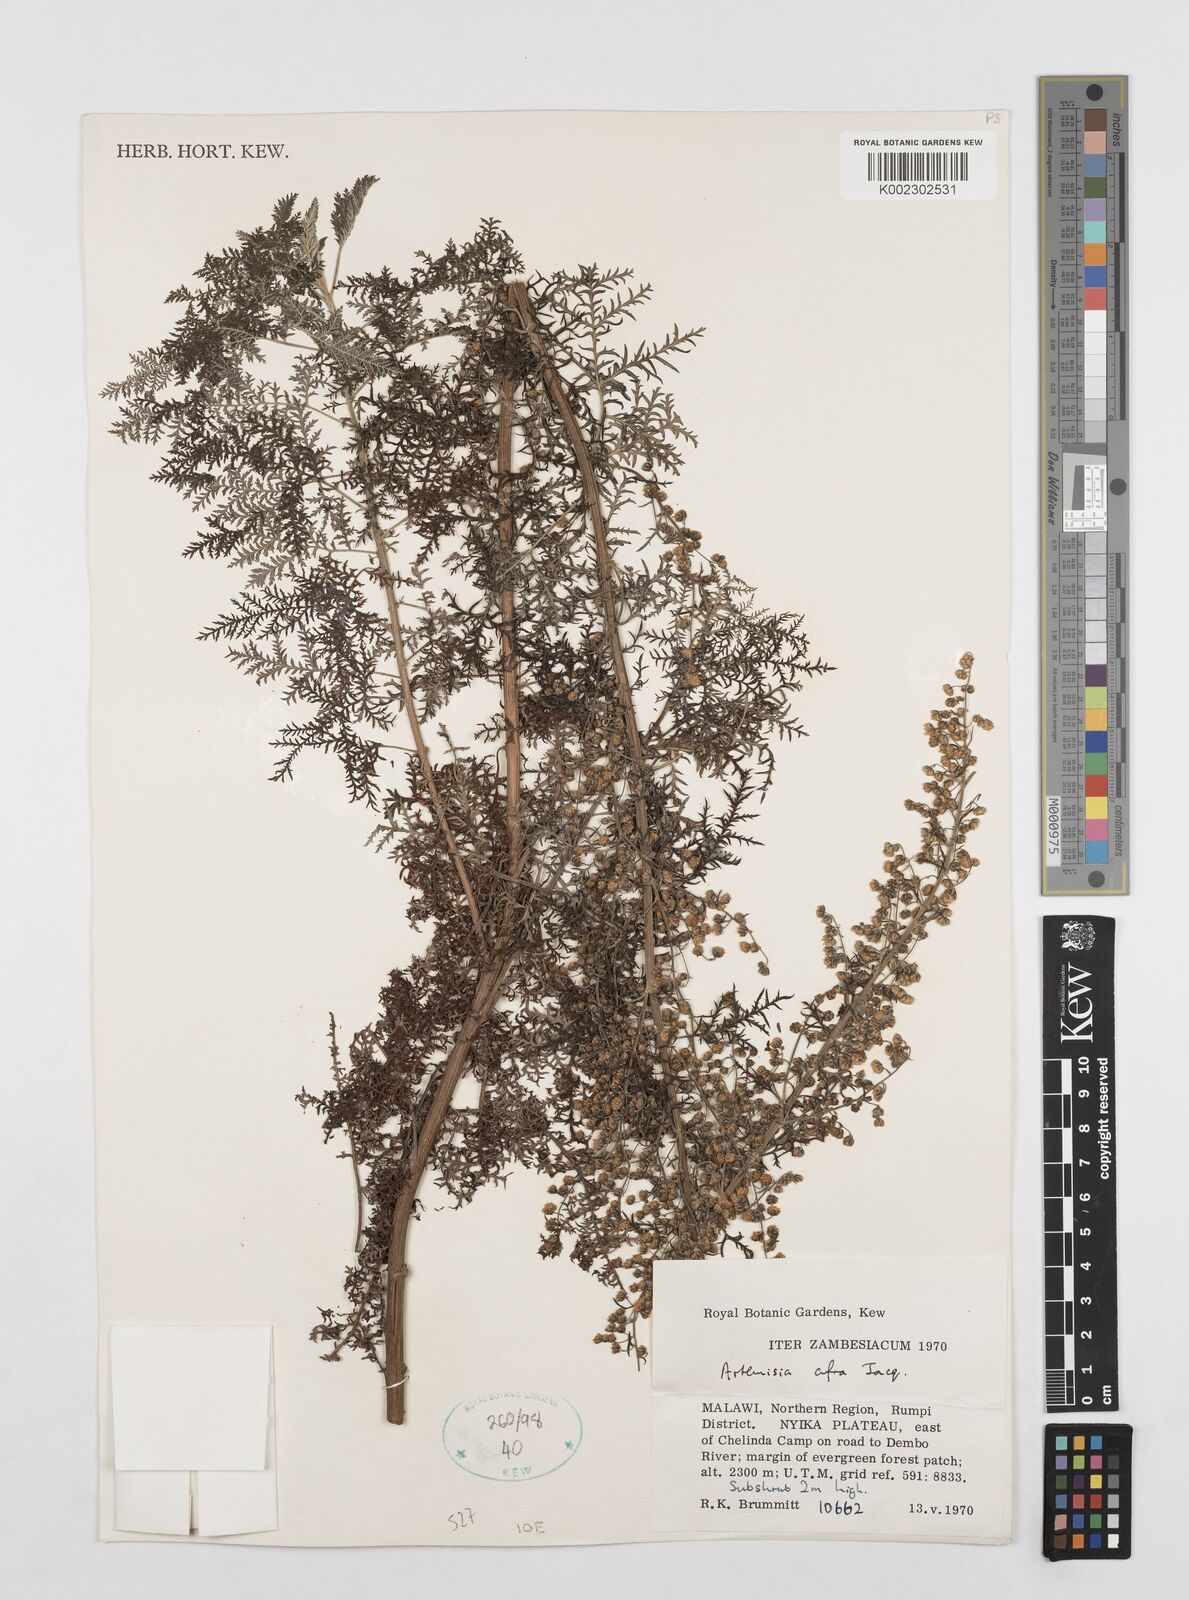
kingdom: Plantae
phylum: Tracheophyta
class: Magnoliopsida
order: Asterales
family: Asteraceae
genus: Artemisia
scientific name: Artemisia afra
